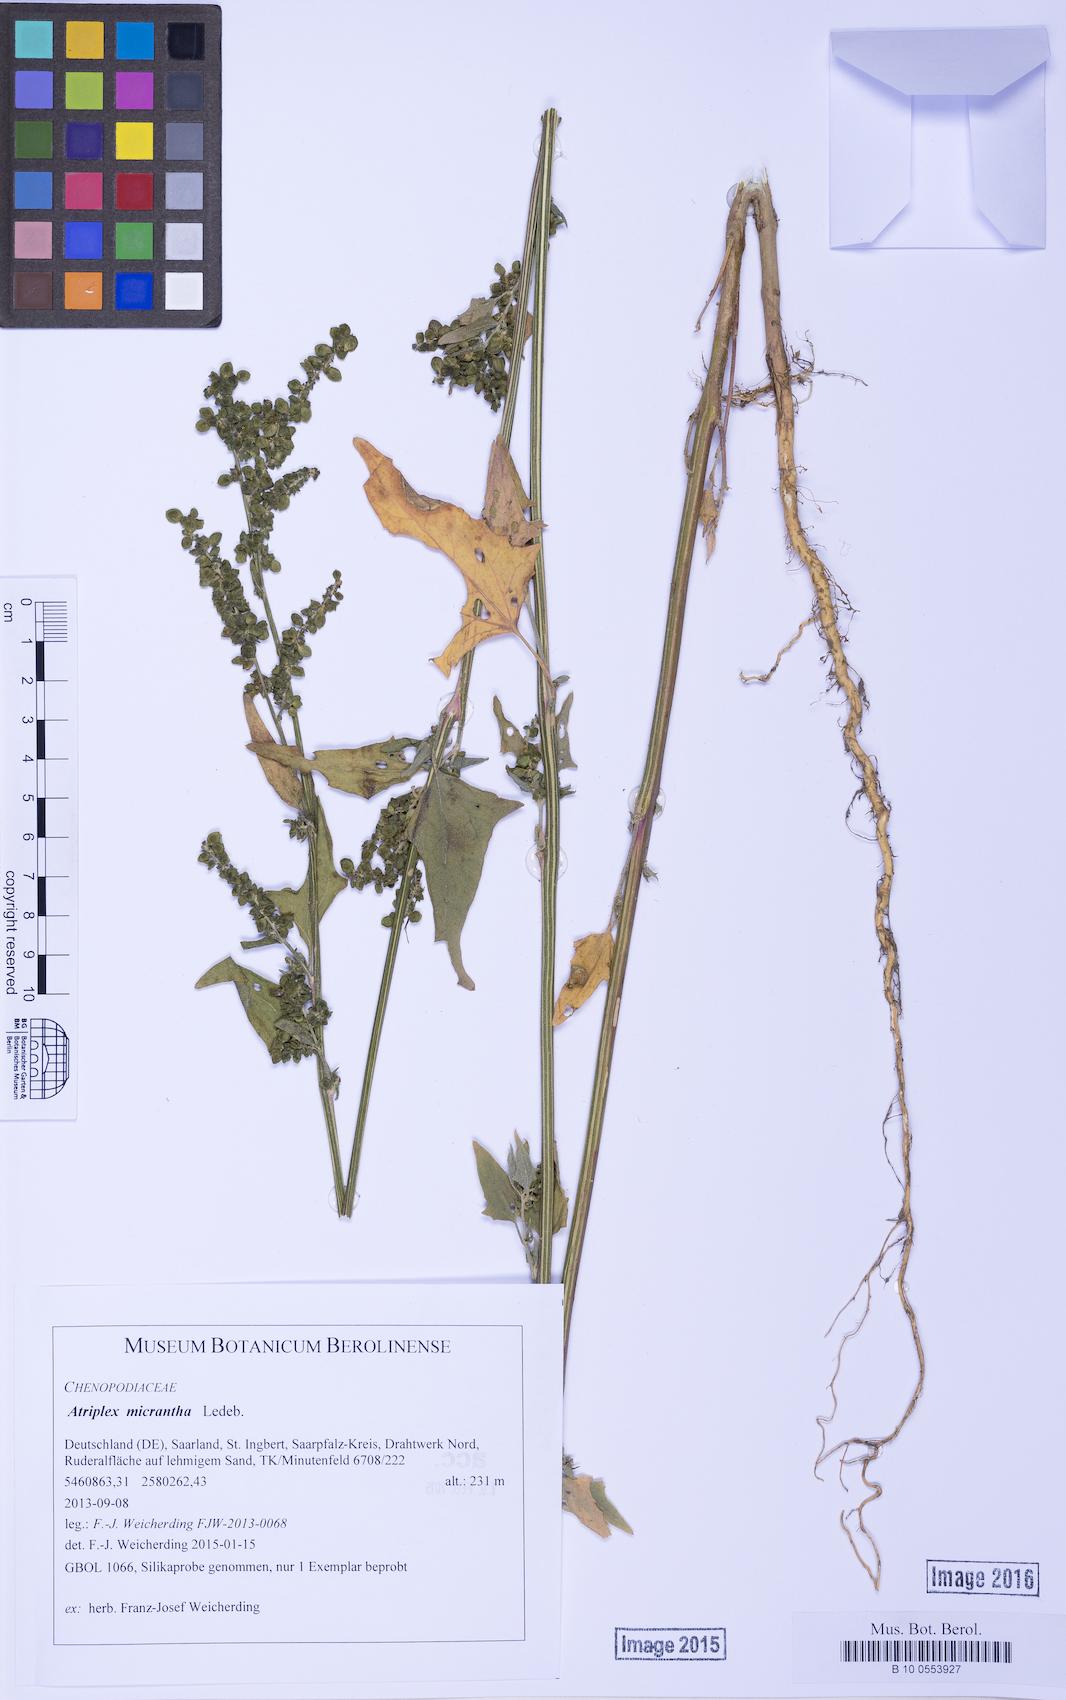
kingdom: Plantae
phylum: Tracheophyta
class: Magnoliopsida
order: Caryophyllales
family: Amaranthaceae
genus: Atriplex
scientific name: Atriplex micrantha
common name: Twoscale saltbush
